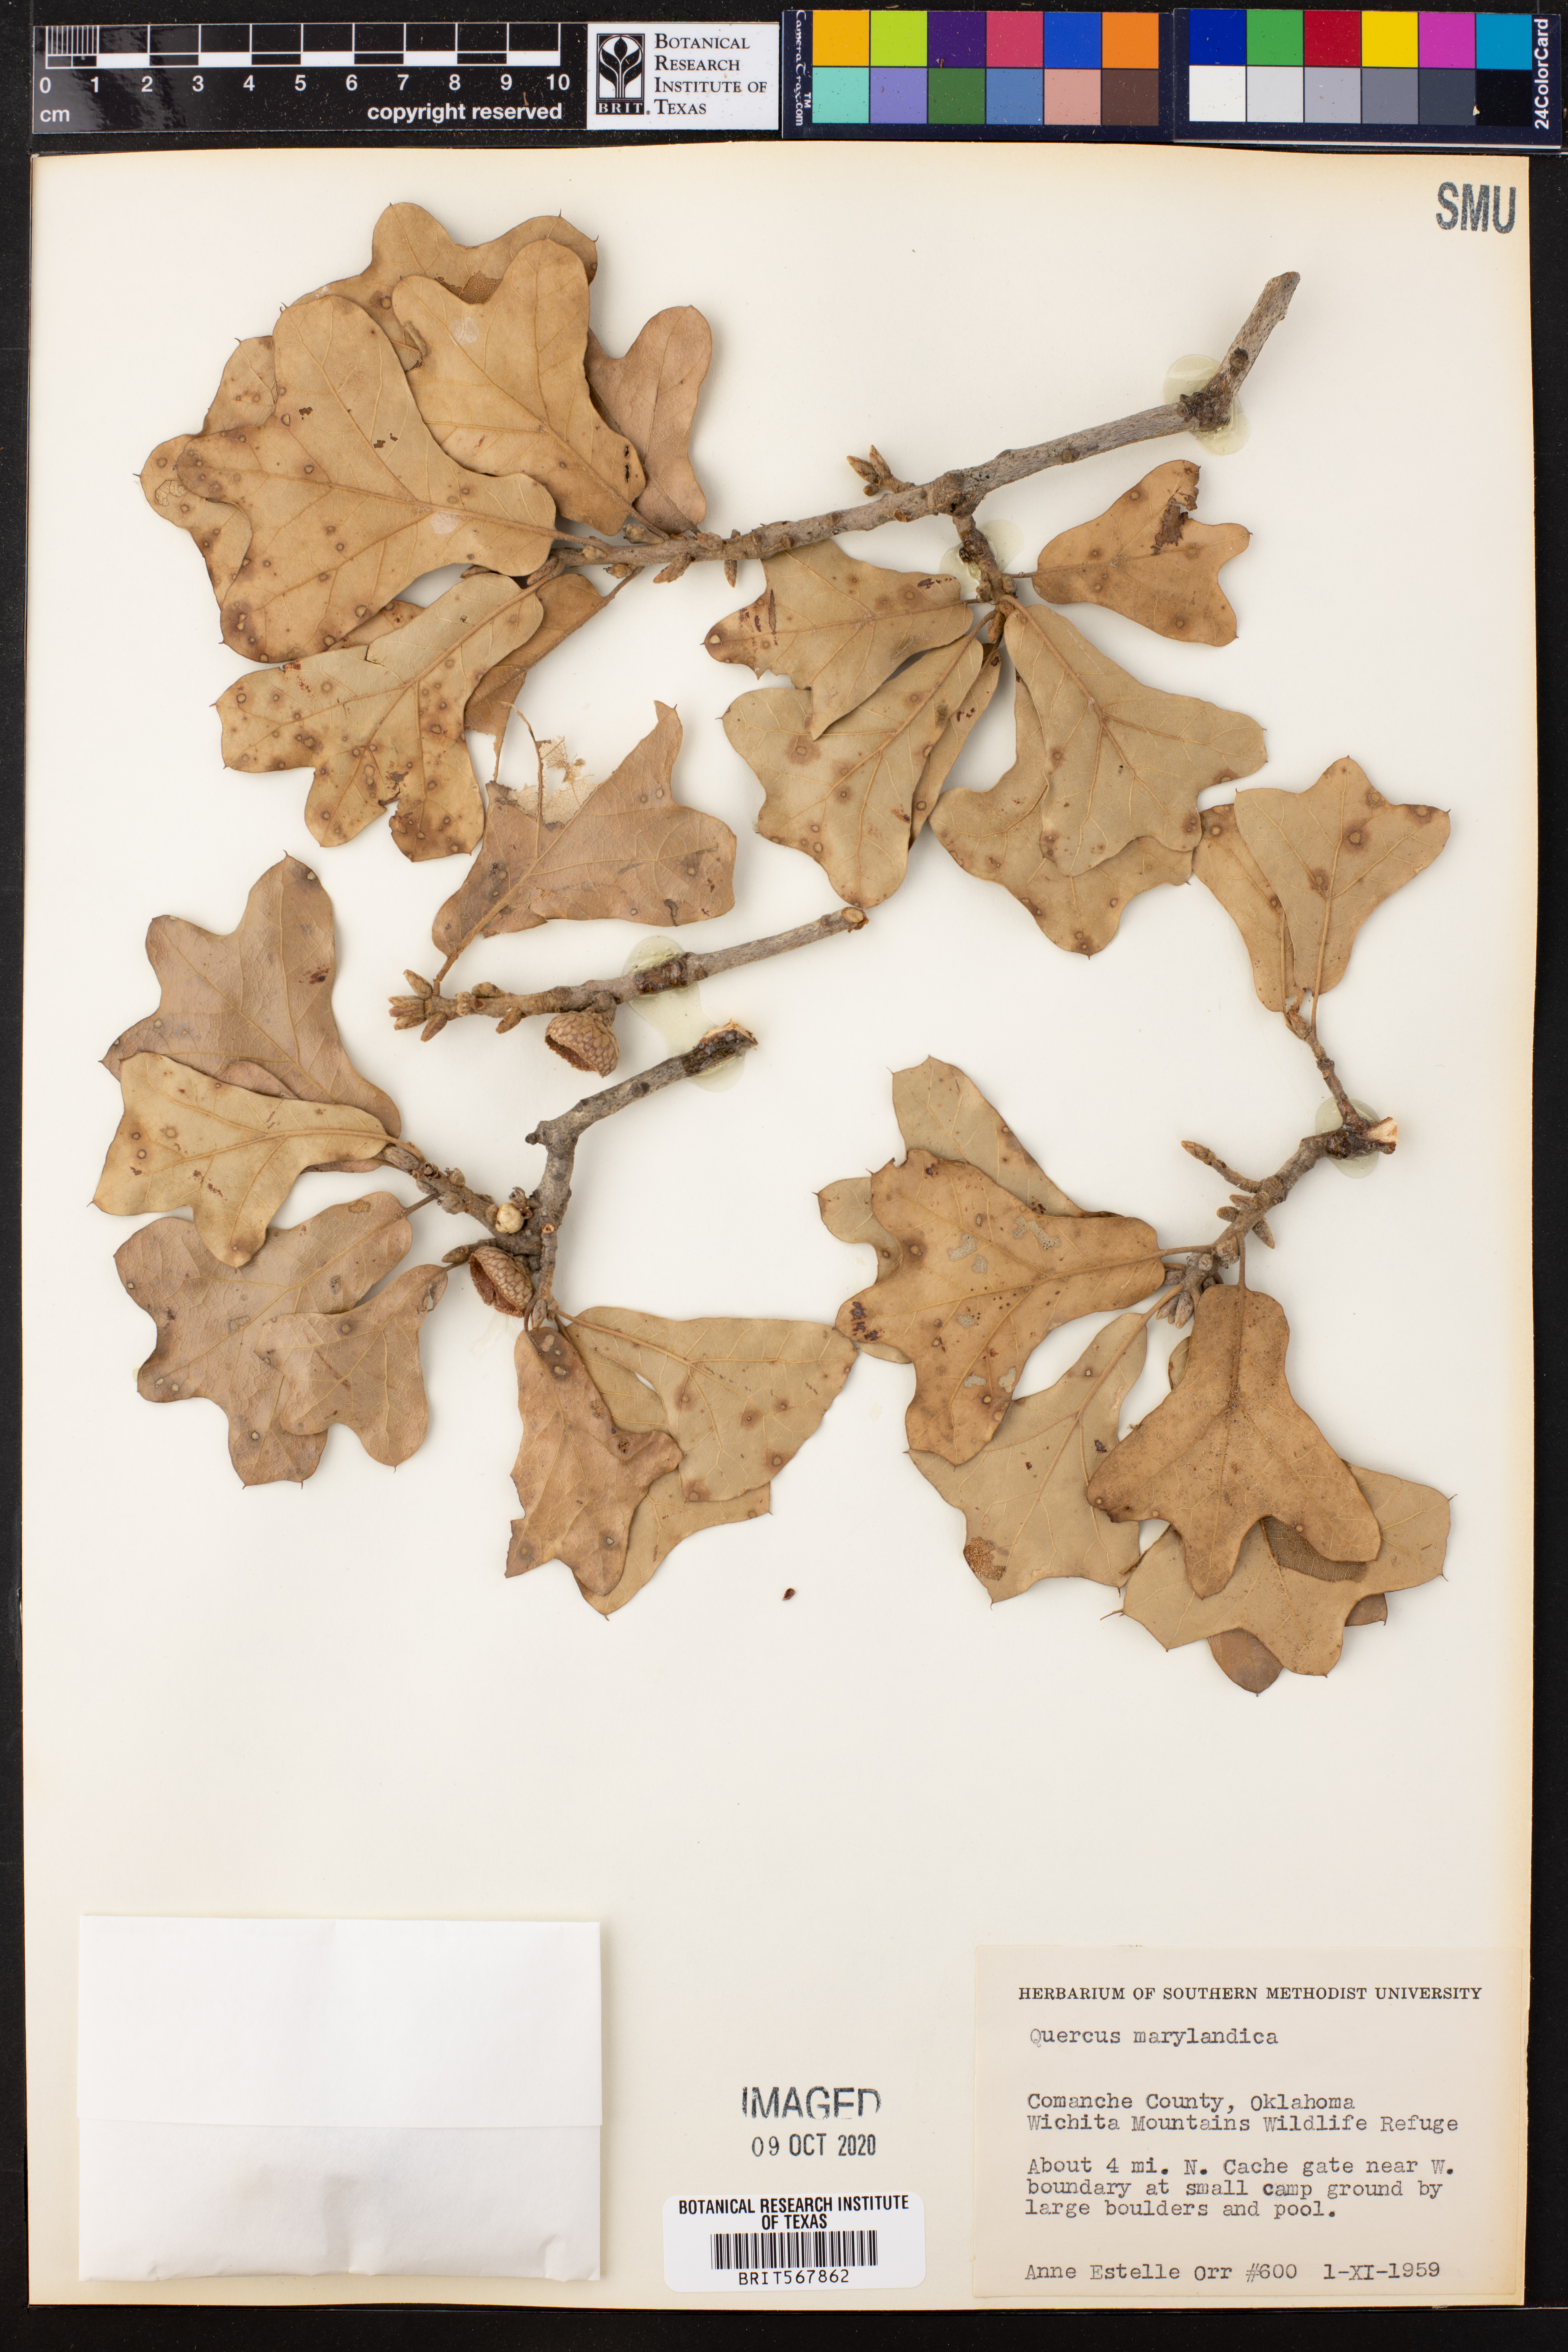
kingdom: Plantae
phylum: Tracheophyta
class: Magnoliopsida
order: Fagales
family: Fagaceae
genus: Quercus
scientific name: Quercus nigra
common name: Water oak
